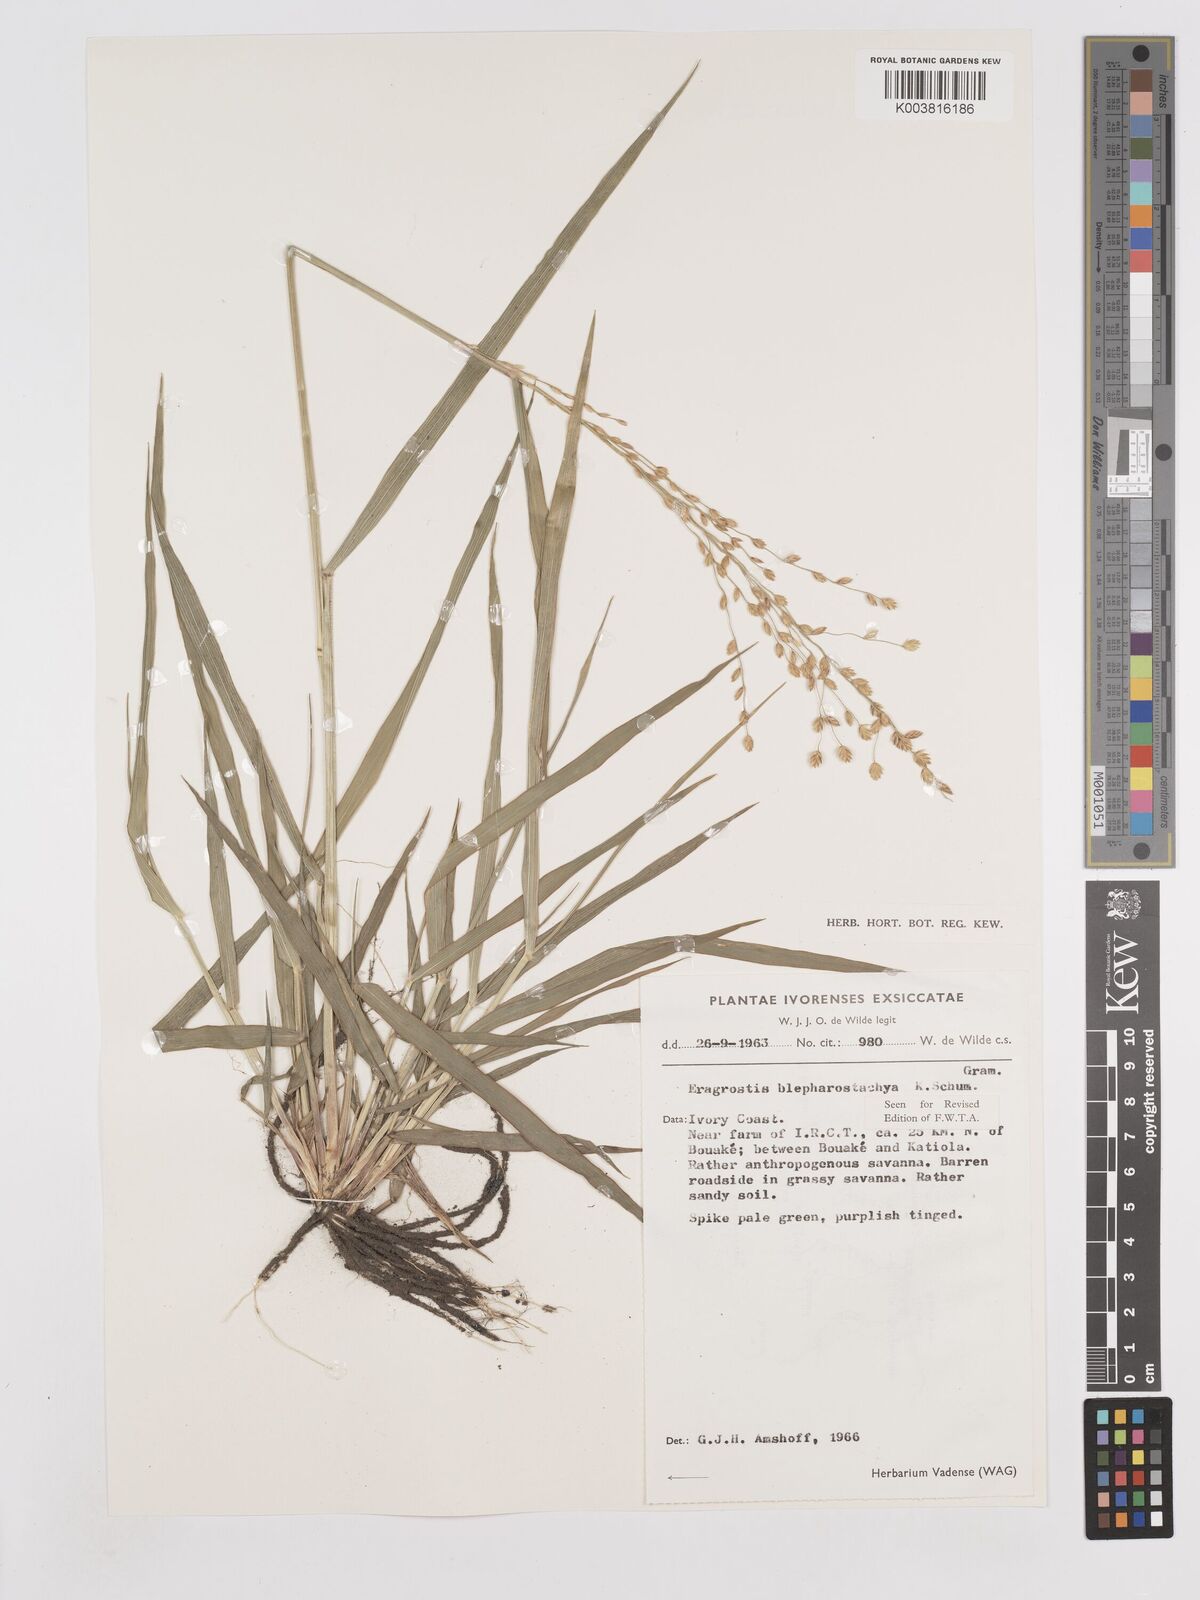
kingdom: Plantae
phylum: Tracheophyta
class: Liliopsida
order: Poales
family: Poaceae
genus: Eragrostis
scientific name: Eragrostis blepharostachya
